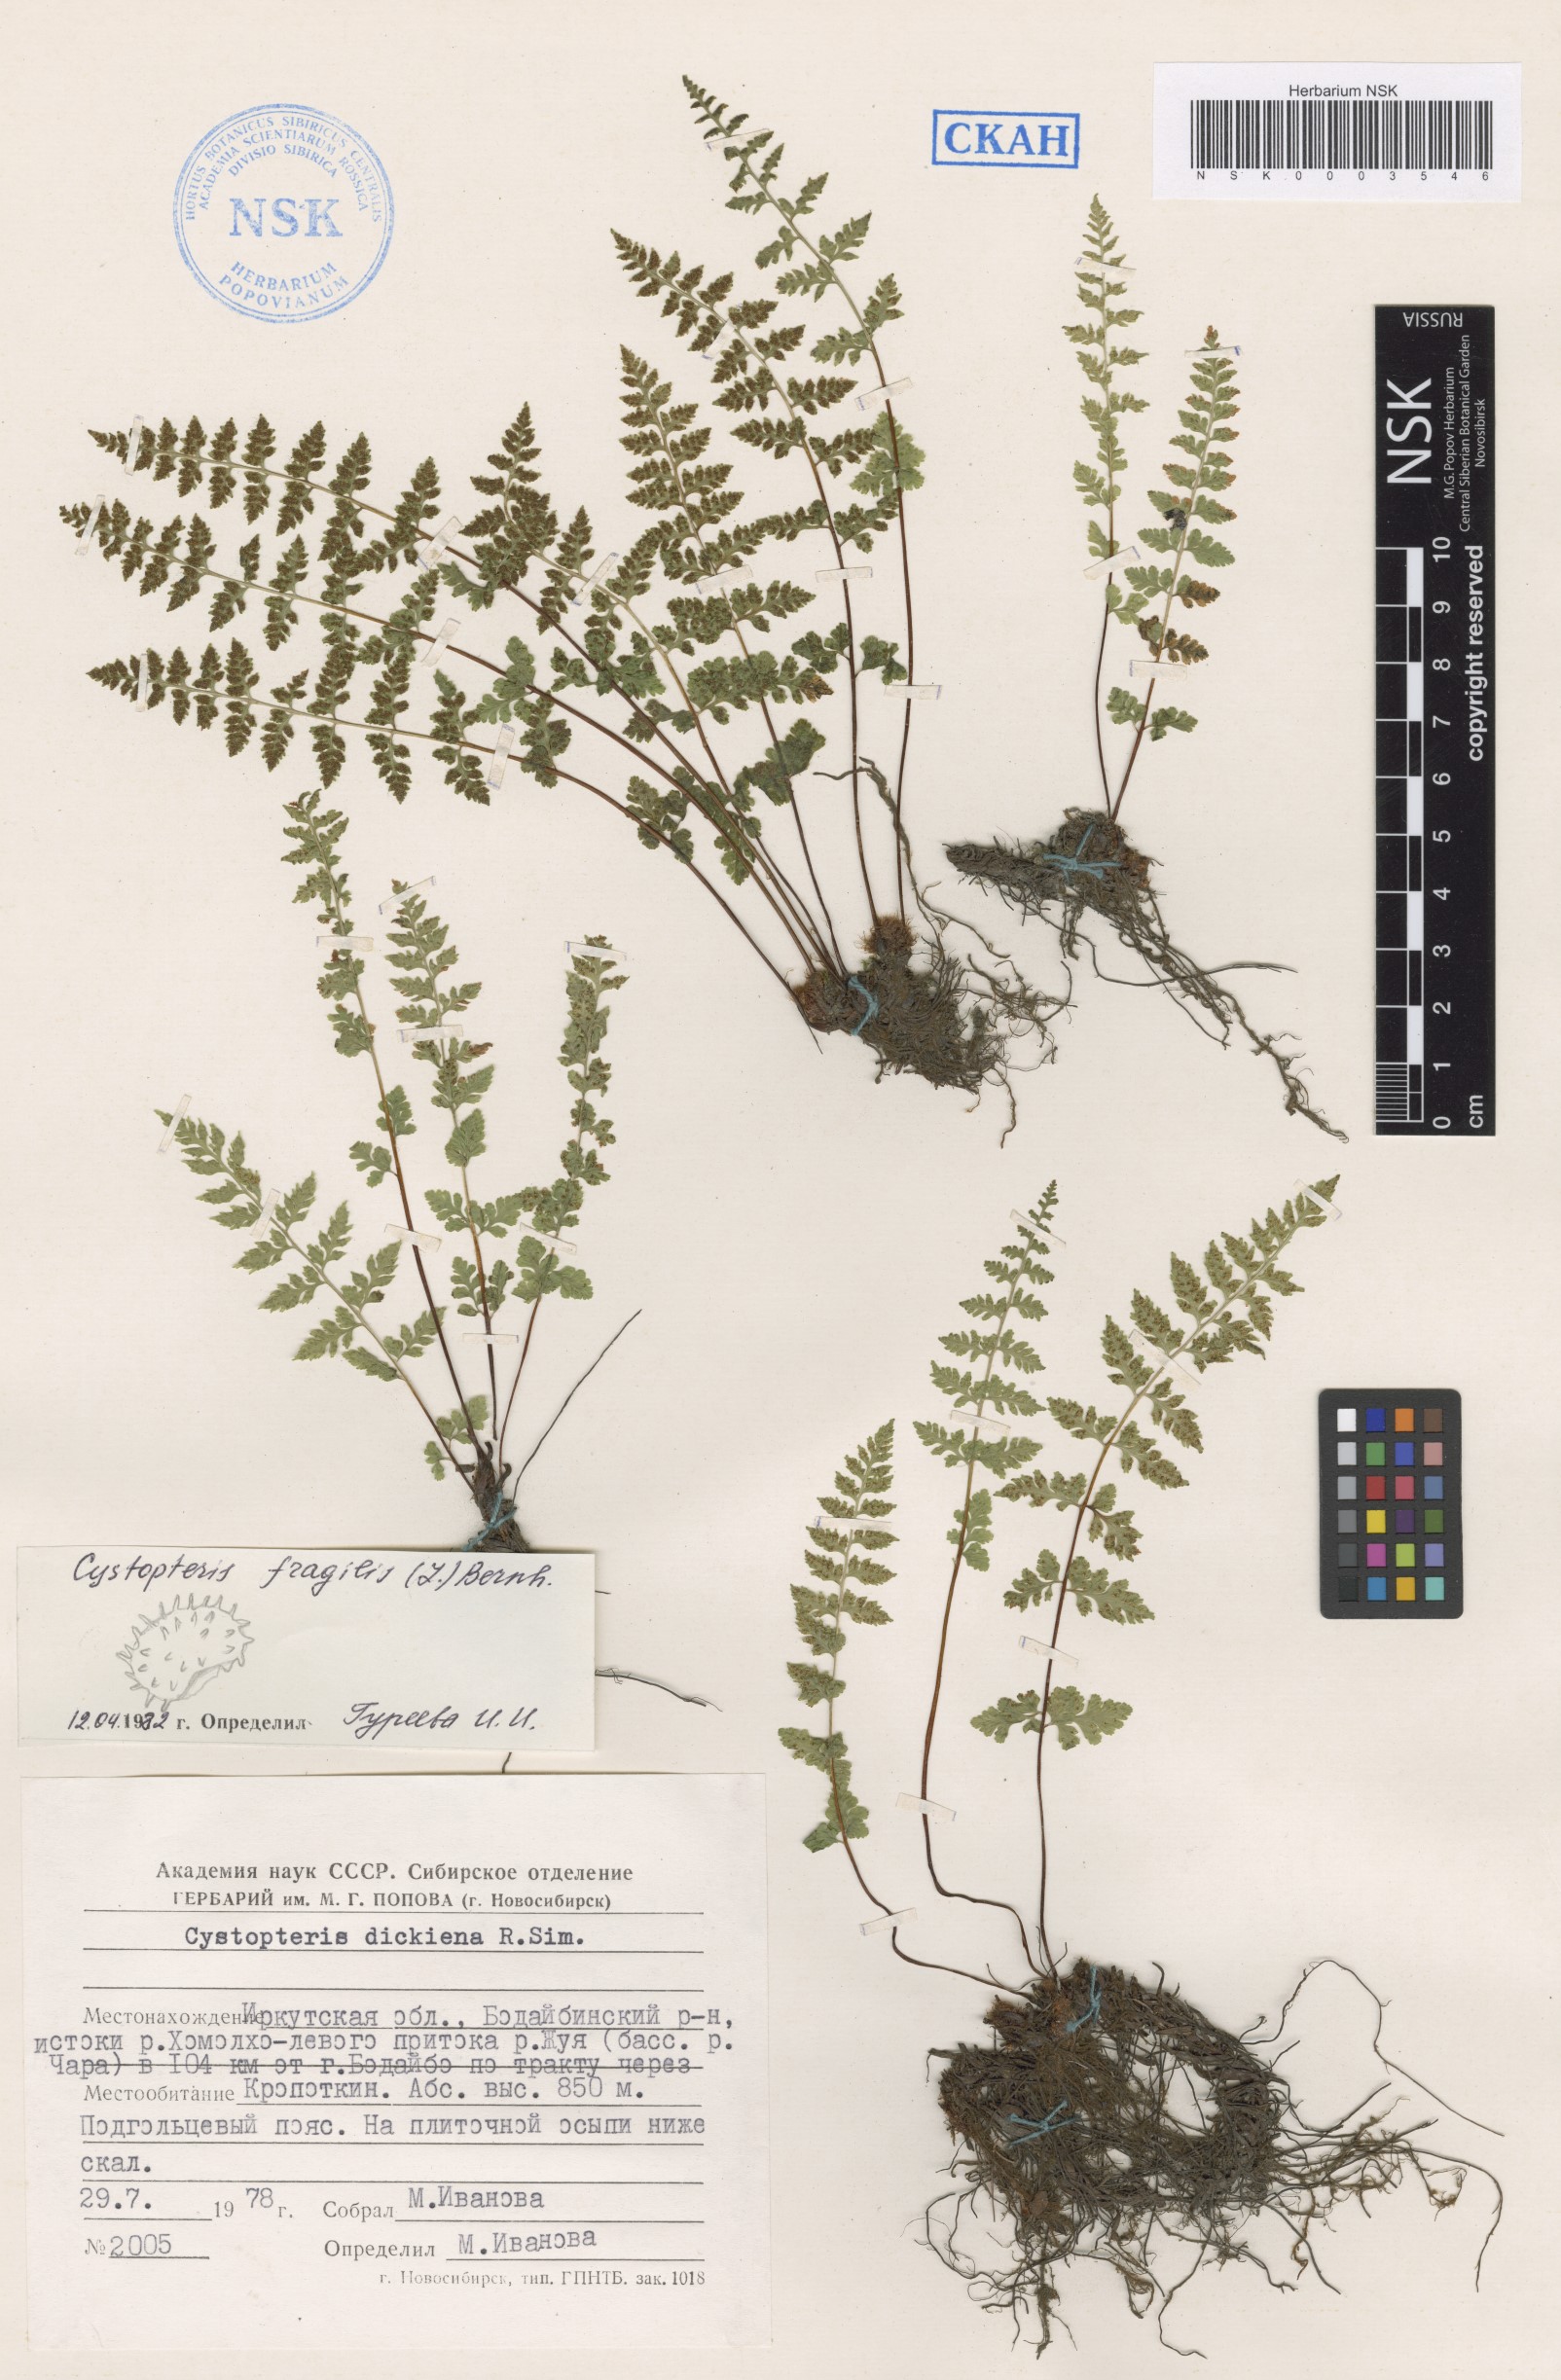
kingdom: Plantae
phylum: Tracheophyta
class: Polypodiopsida
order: Polypodiales
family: Cystopteridaceae
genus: Cystopteris
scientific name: Cystopteris fragilis
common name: Brittle bladder fern
